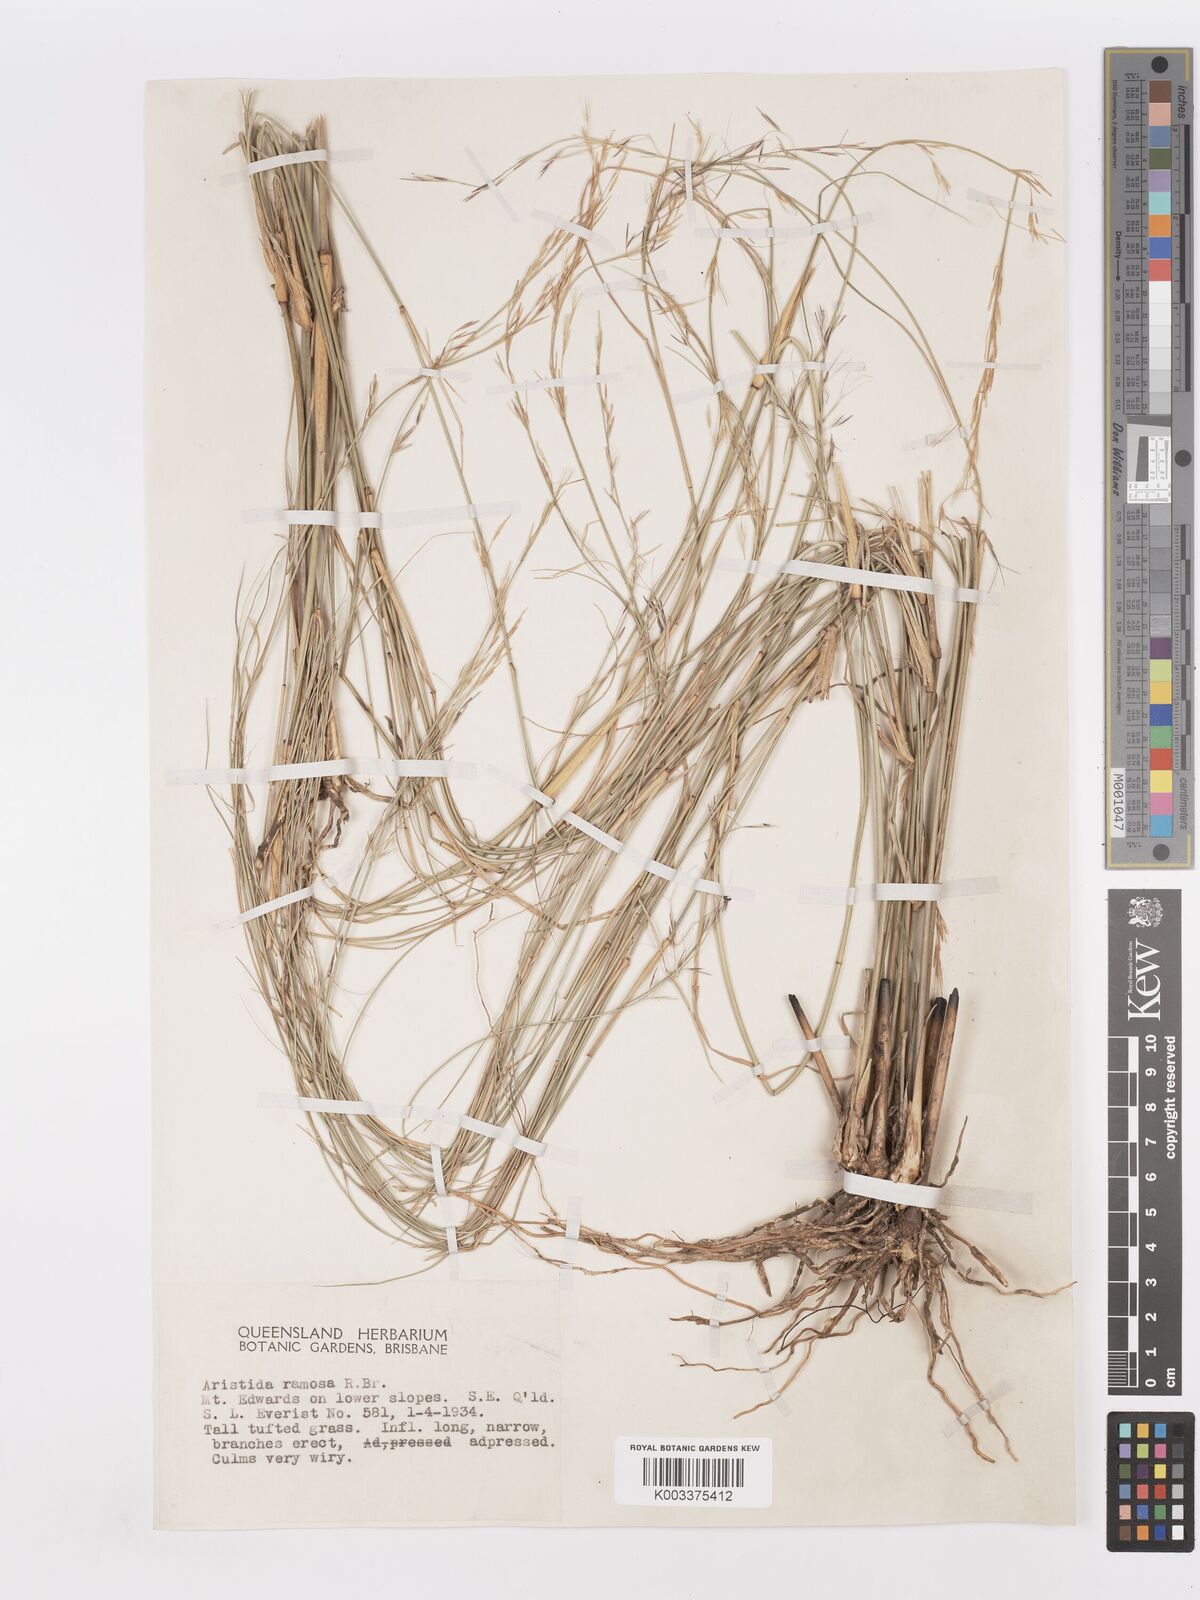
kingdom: Plantae
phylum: Tracheophyta
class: Liliopsida
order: Poales
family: Poaceae
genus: Aristida
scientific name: Aristida ramosa
